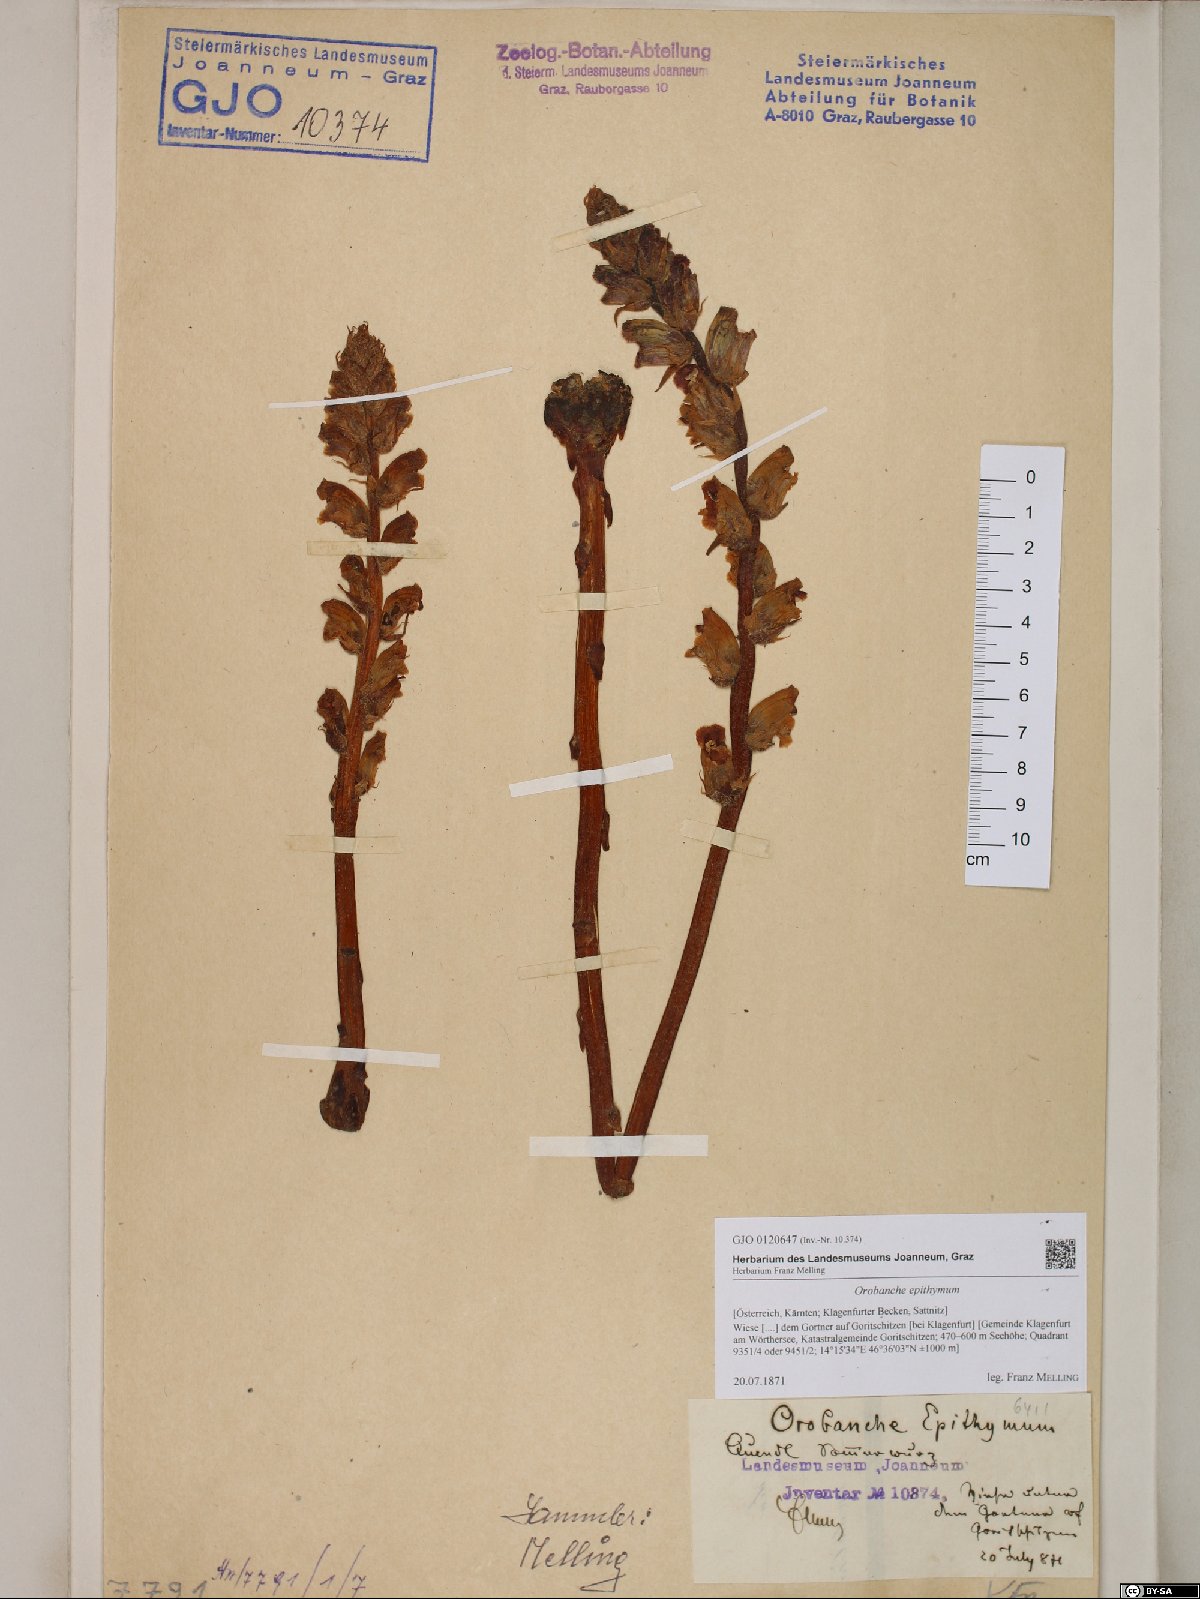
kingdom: Plantae
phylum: Tracheophyta
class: Magnoliopsida
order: Lamiales
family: Orobanchaceae
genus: Orobanche
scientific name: Orobanche alba
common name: Thyme broomrape
